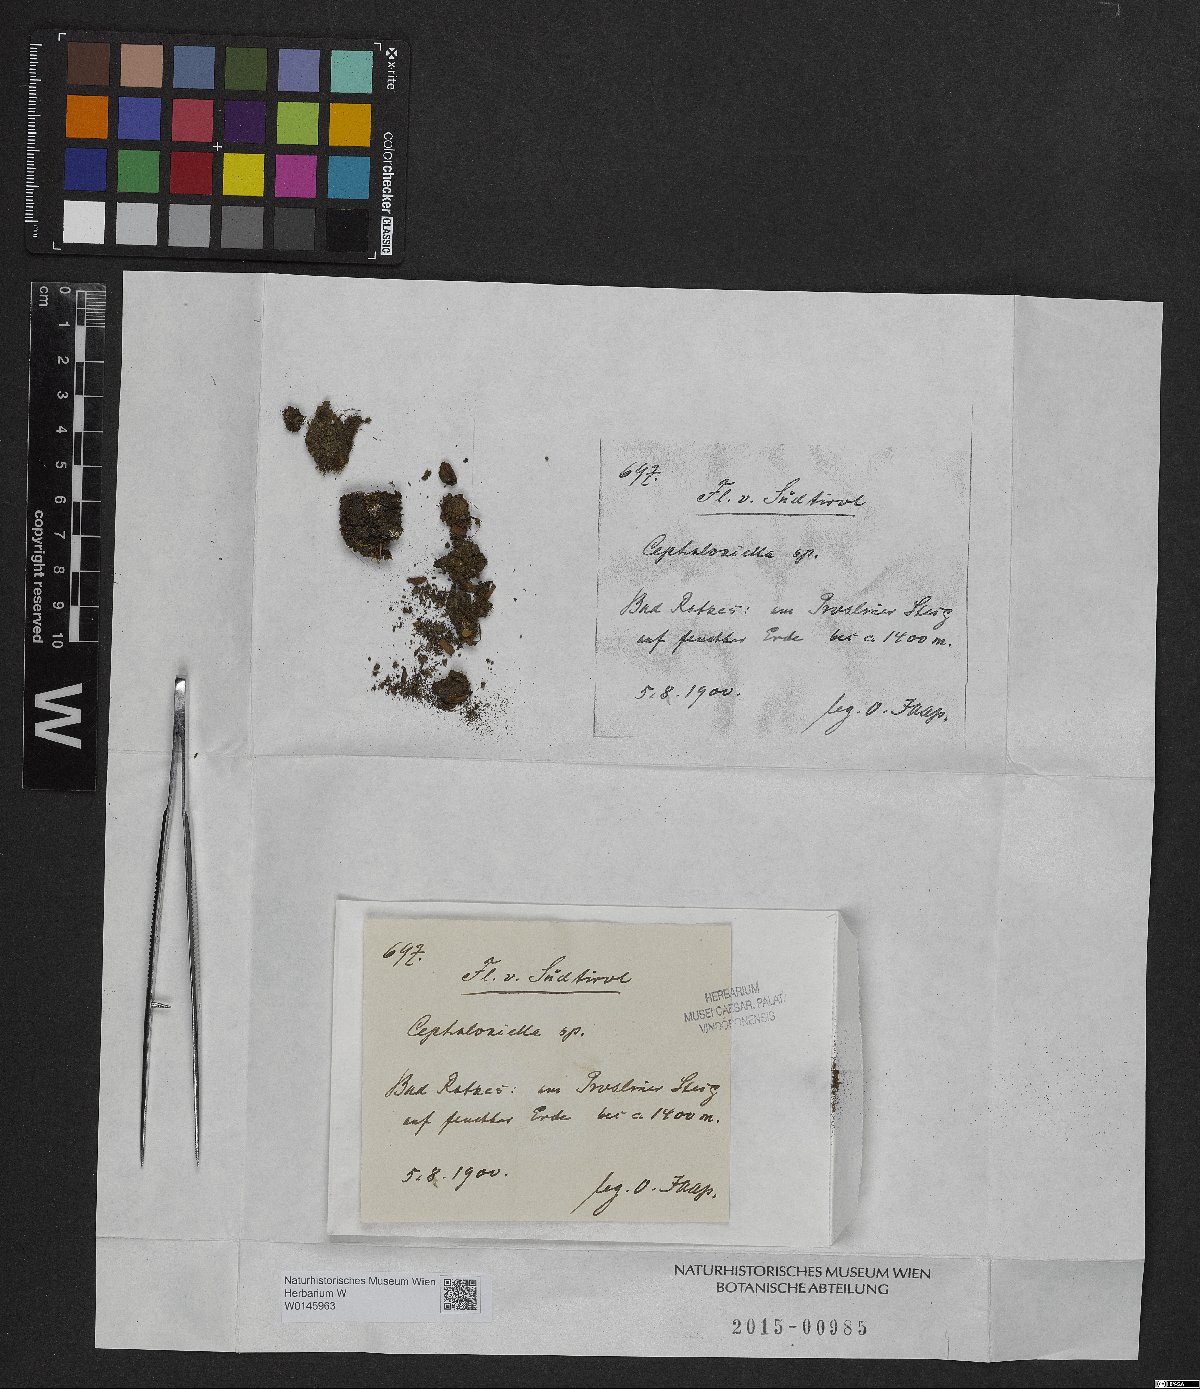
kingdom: Plantae
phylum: Marchantiophyta
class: Jungermanniopsida
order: Jungermanniales
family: Cephaloziellaceae
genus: Cephaloziella
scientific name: Cephaloziella
